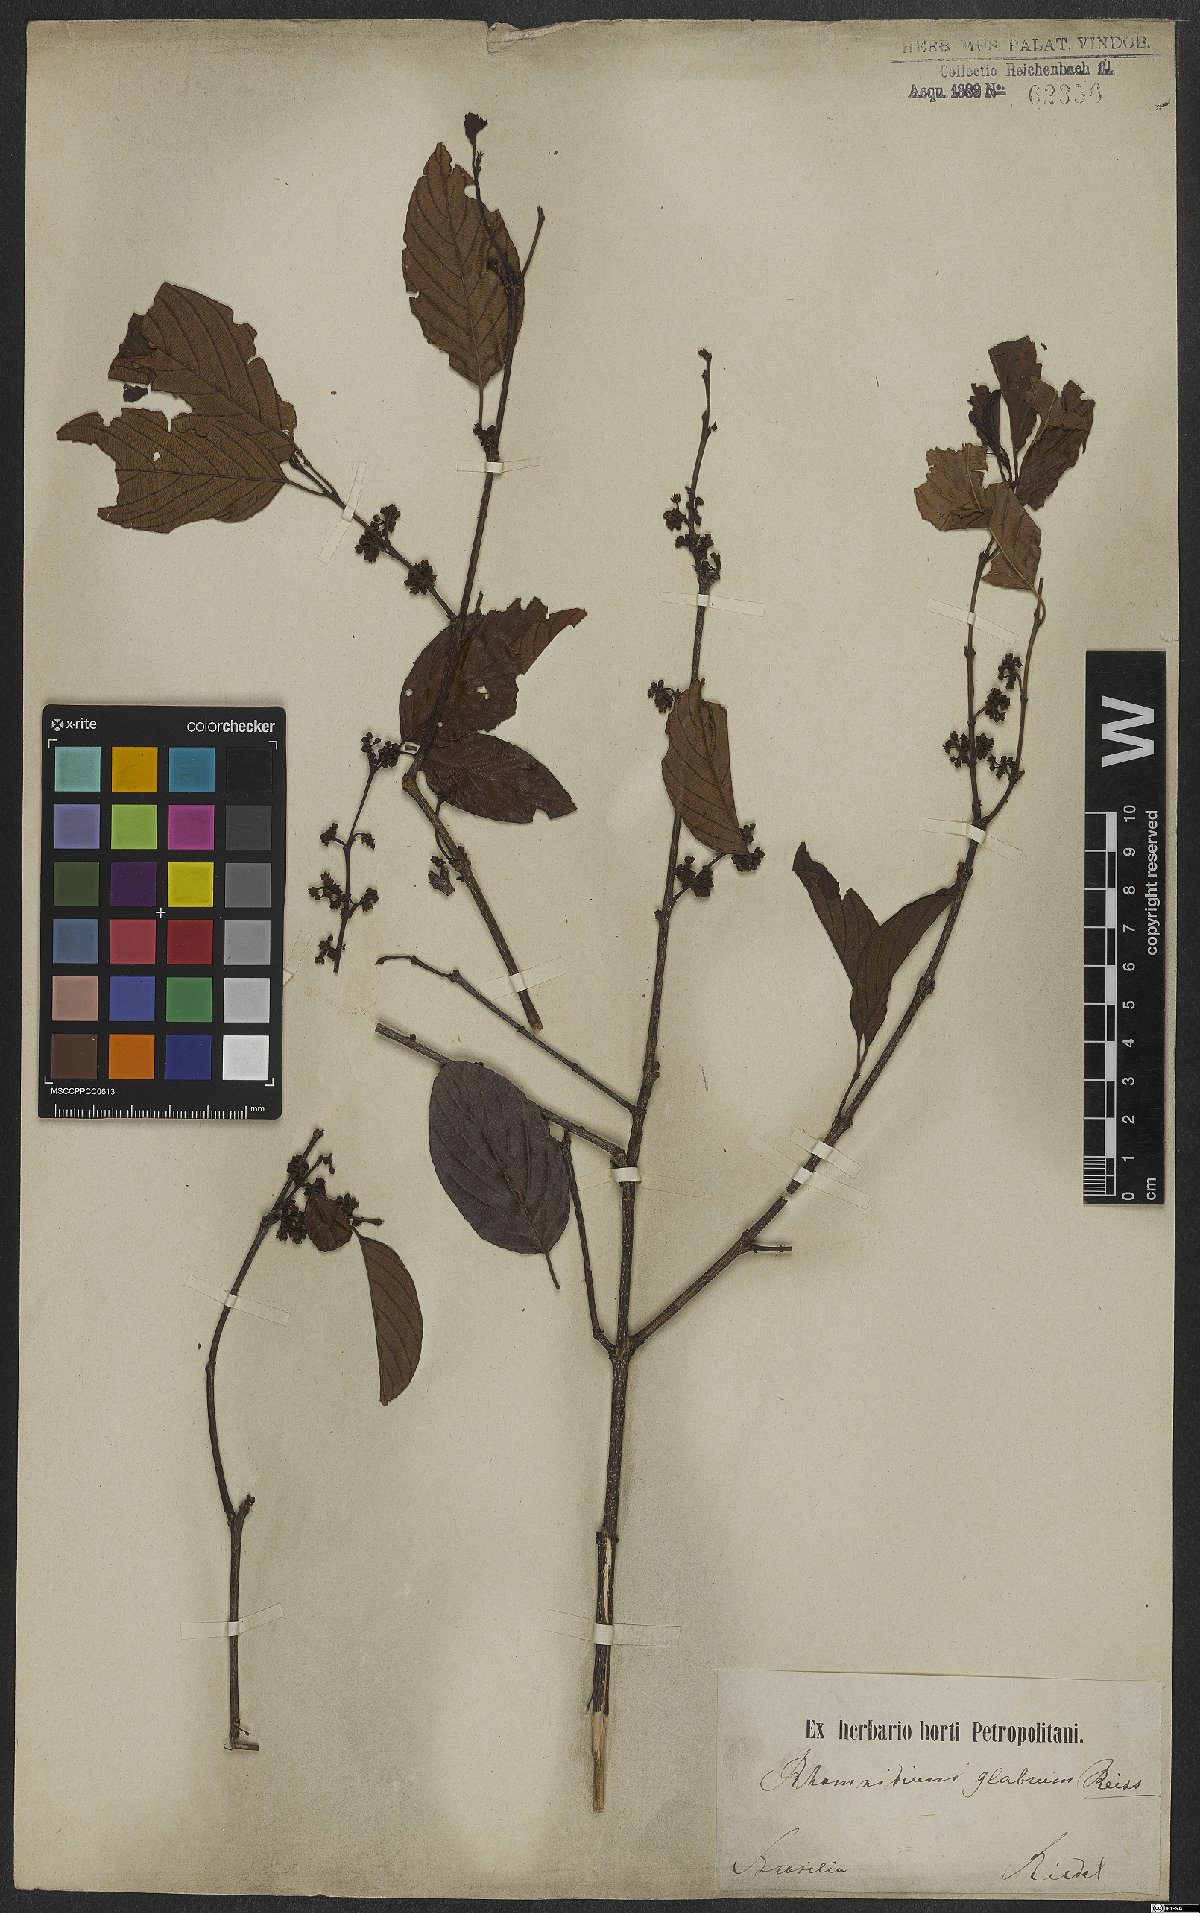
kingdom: Plantae
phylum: Tracheophyta
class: Magnoliopsida
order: Rosales
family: Rhamnaceae
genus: Rhamnidium
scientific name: Rhamnidium glabrum
